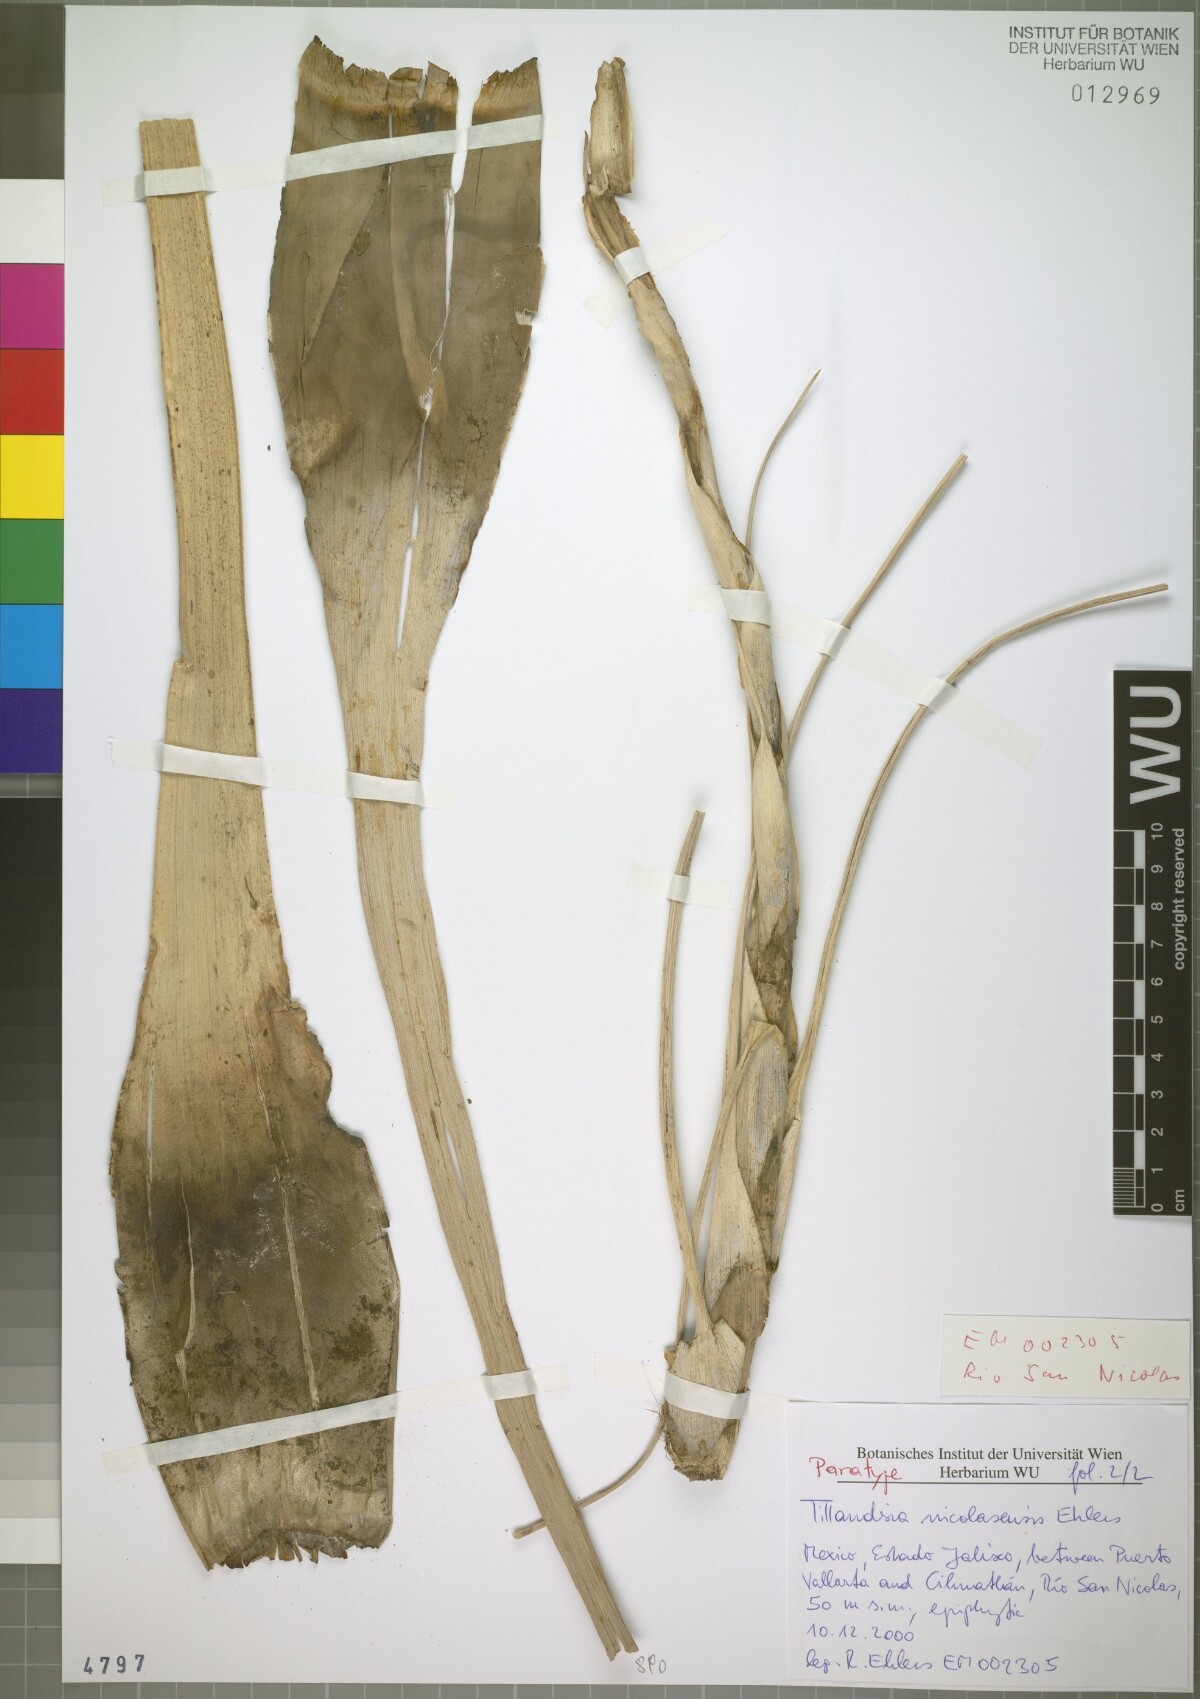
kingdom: Plantae
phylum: Tracheophyta
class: Liliopsida
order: Poales
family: Bromeliaceae
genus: Tillandsia
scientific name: Tillandsia nicolasensis
